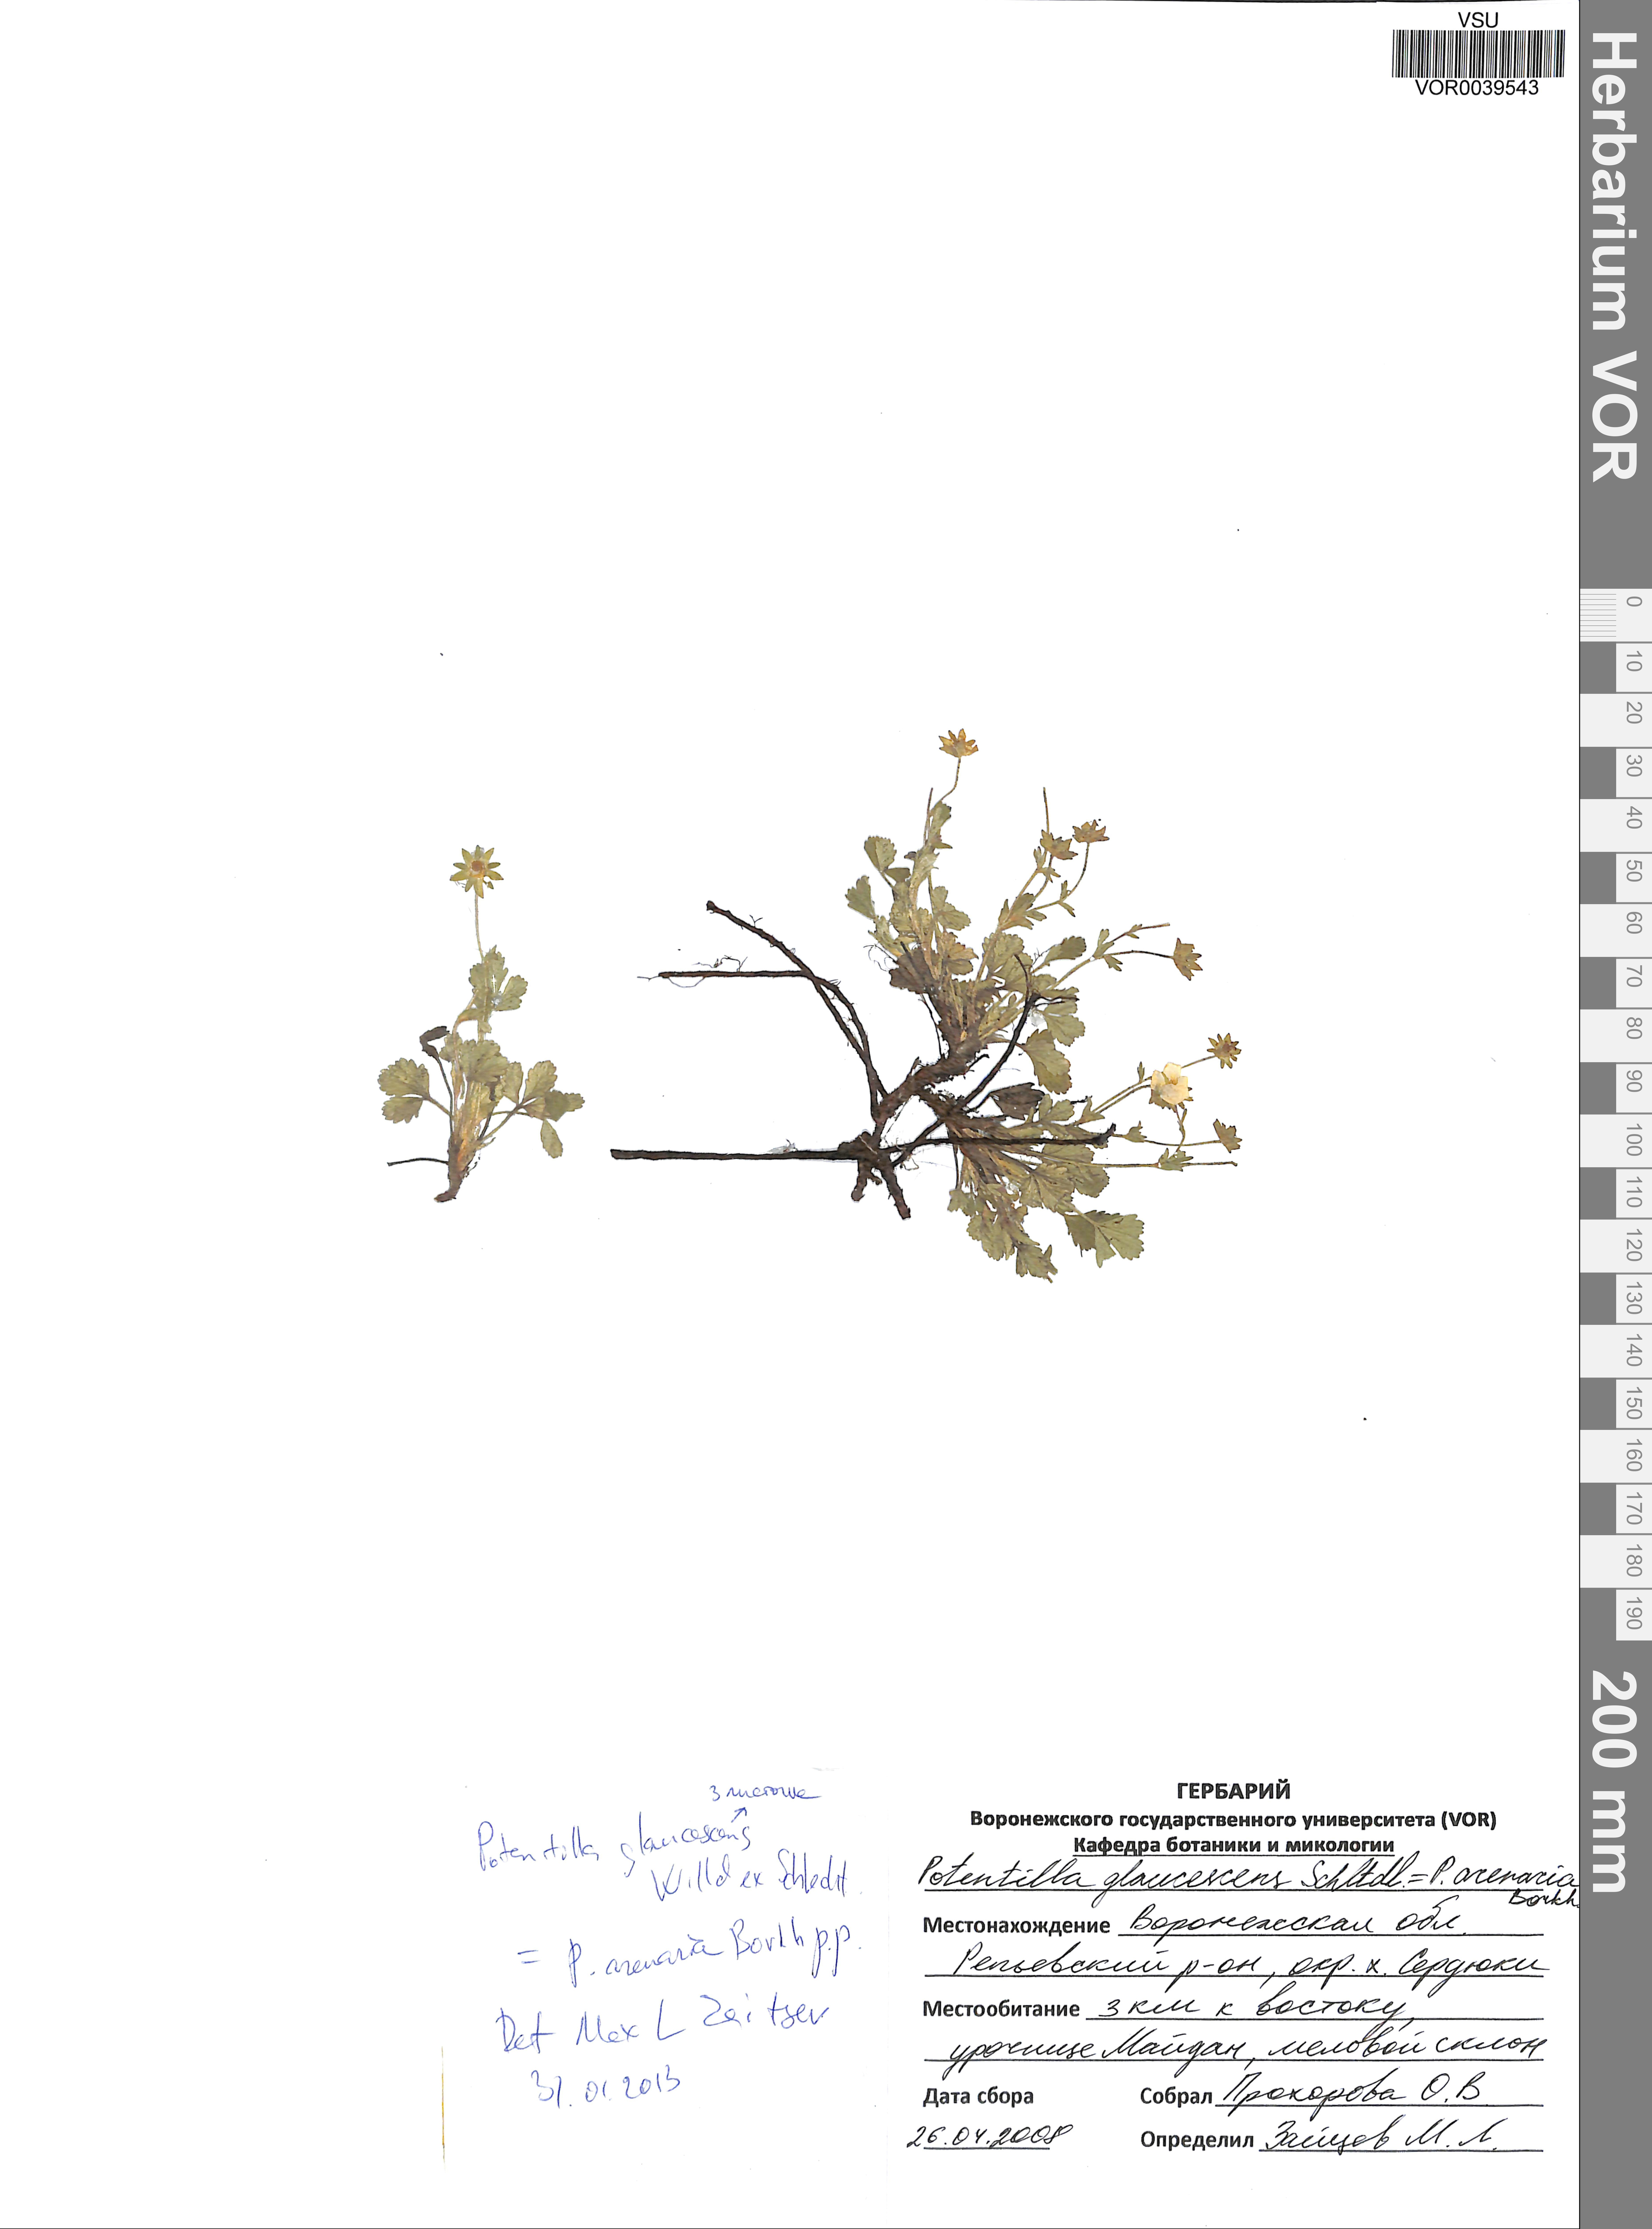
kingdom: Plantae
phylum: Tracheophyta
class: Magnoliopsida
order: Rosales
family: Rosaceae
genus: Potentilla
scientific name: Potentilla glaucescens
